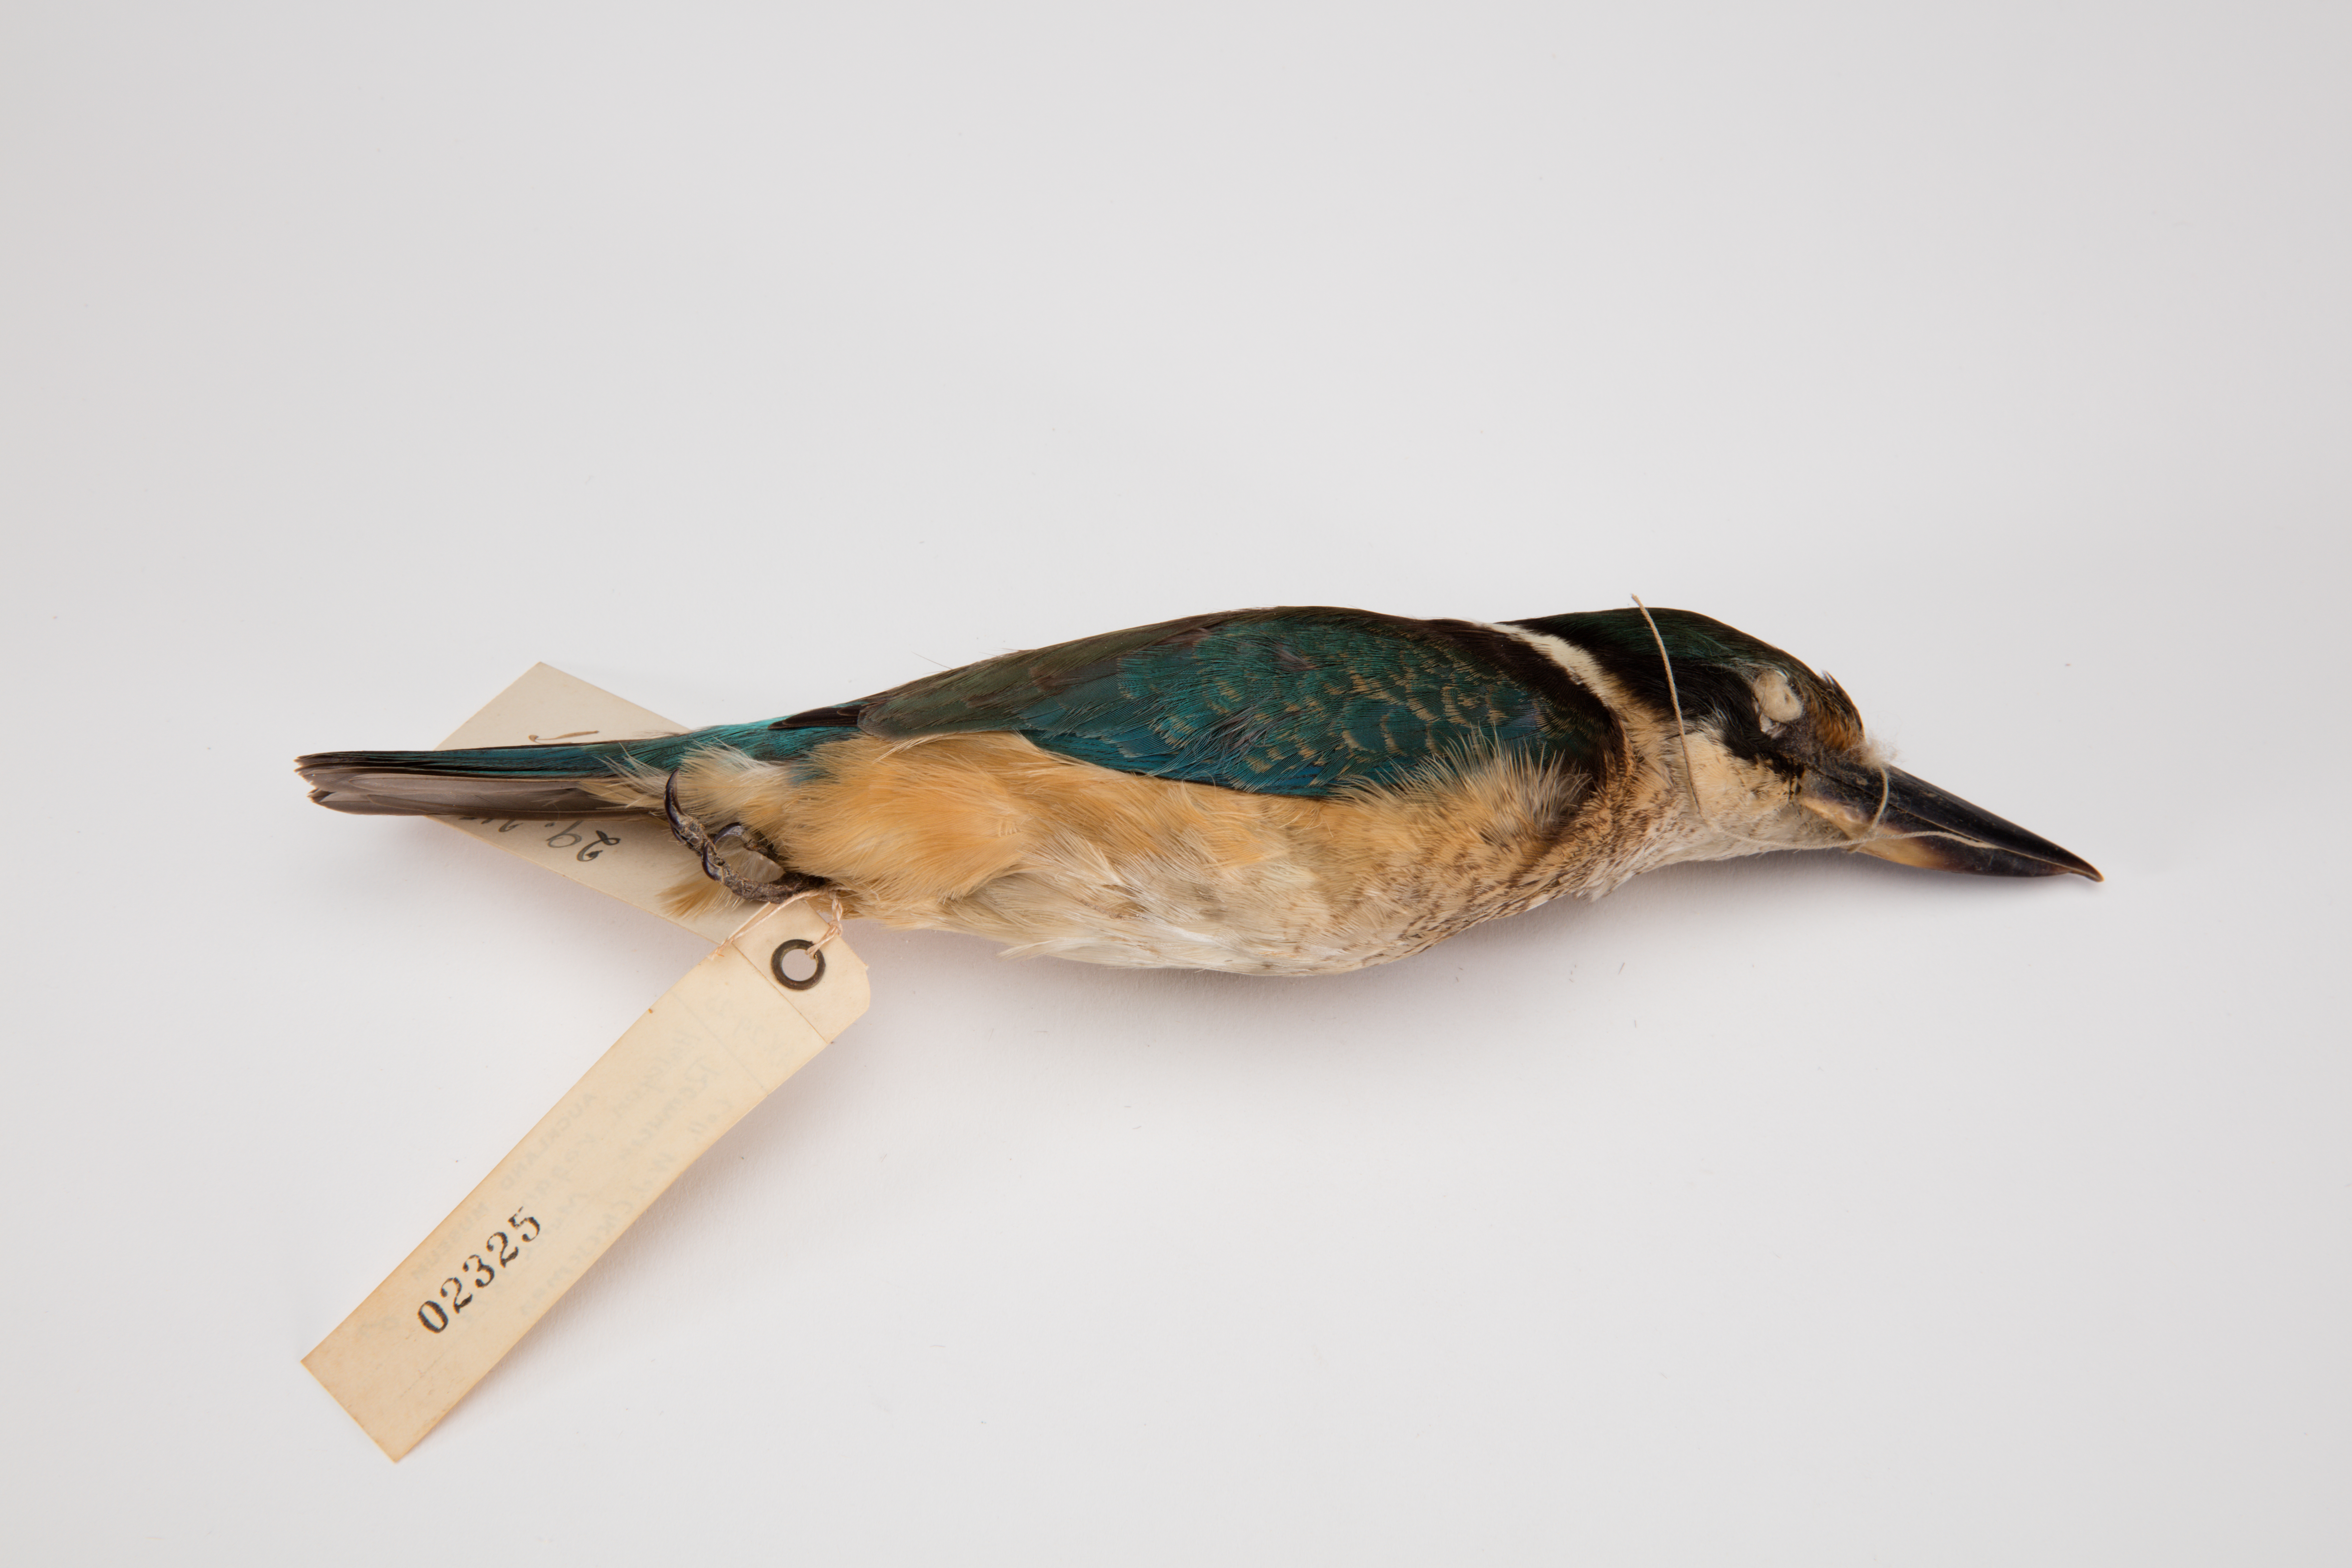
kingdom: Animalia
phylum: Chordata
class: Aves
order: Coraciiformes
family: Alcedinidae
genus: Todiramphus
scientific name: Todiramphus sanctus
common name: Sacred kingfisher
